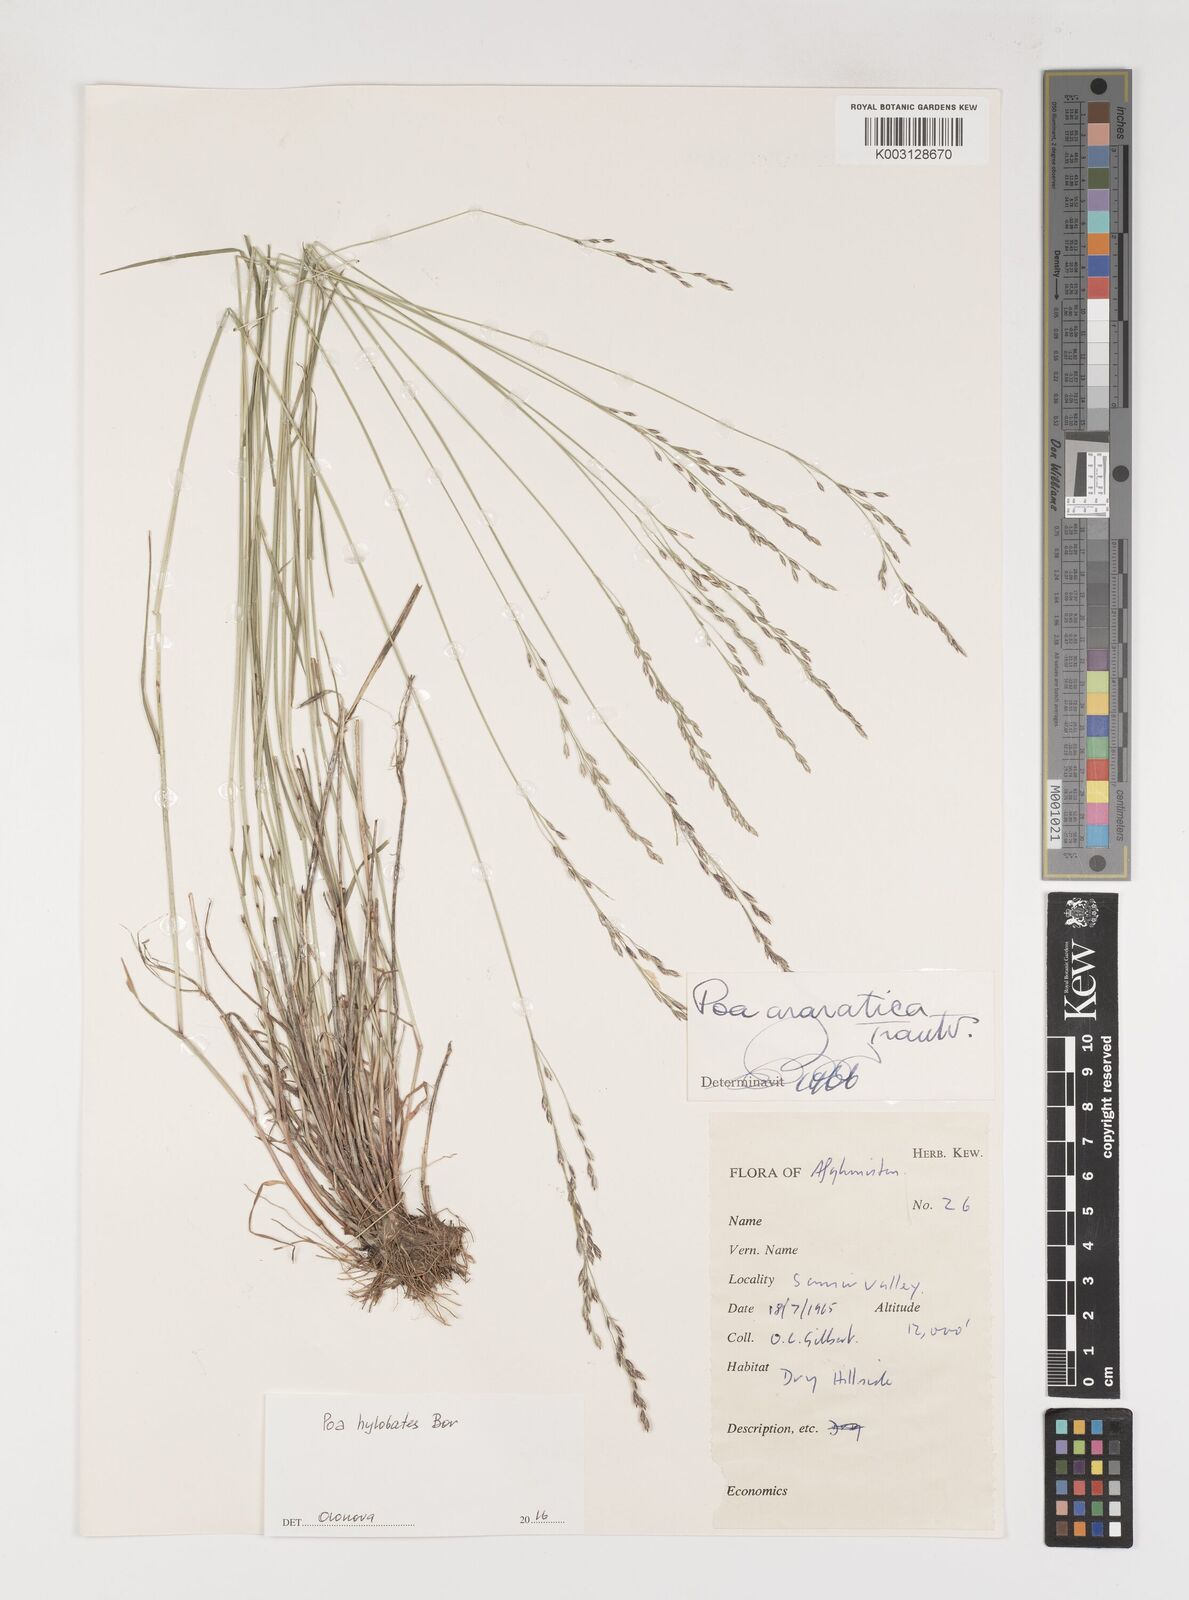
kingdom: Plantae
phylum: Tracheophyta
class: Liliopsida
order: Poales
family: Poaceae
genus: Poa
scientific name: Poa hylobates
